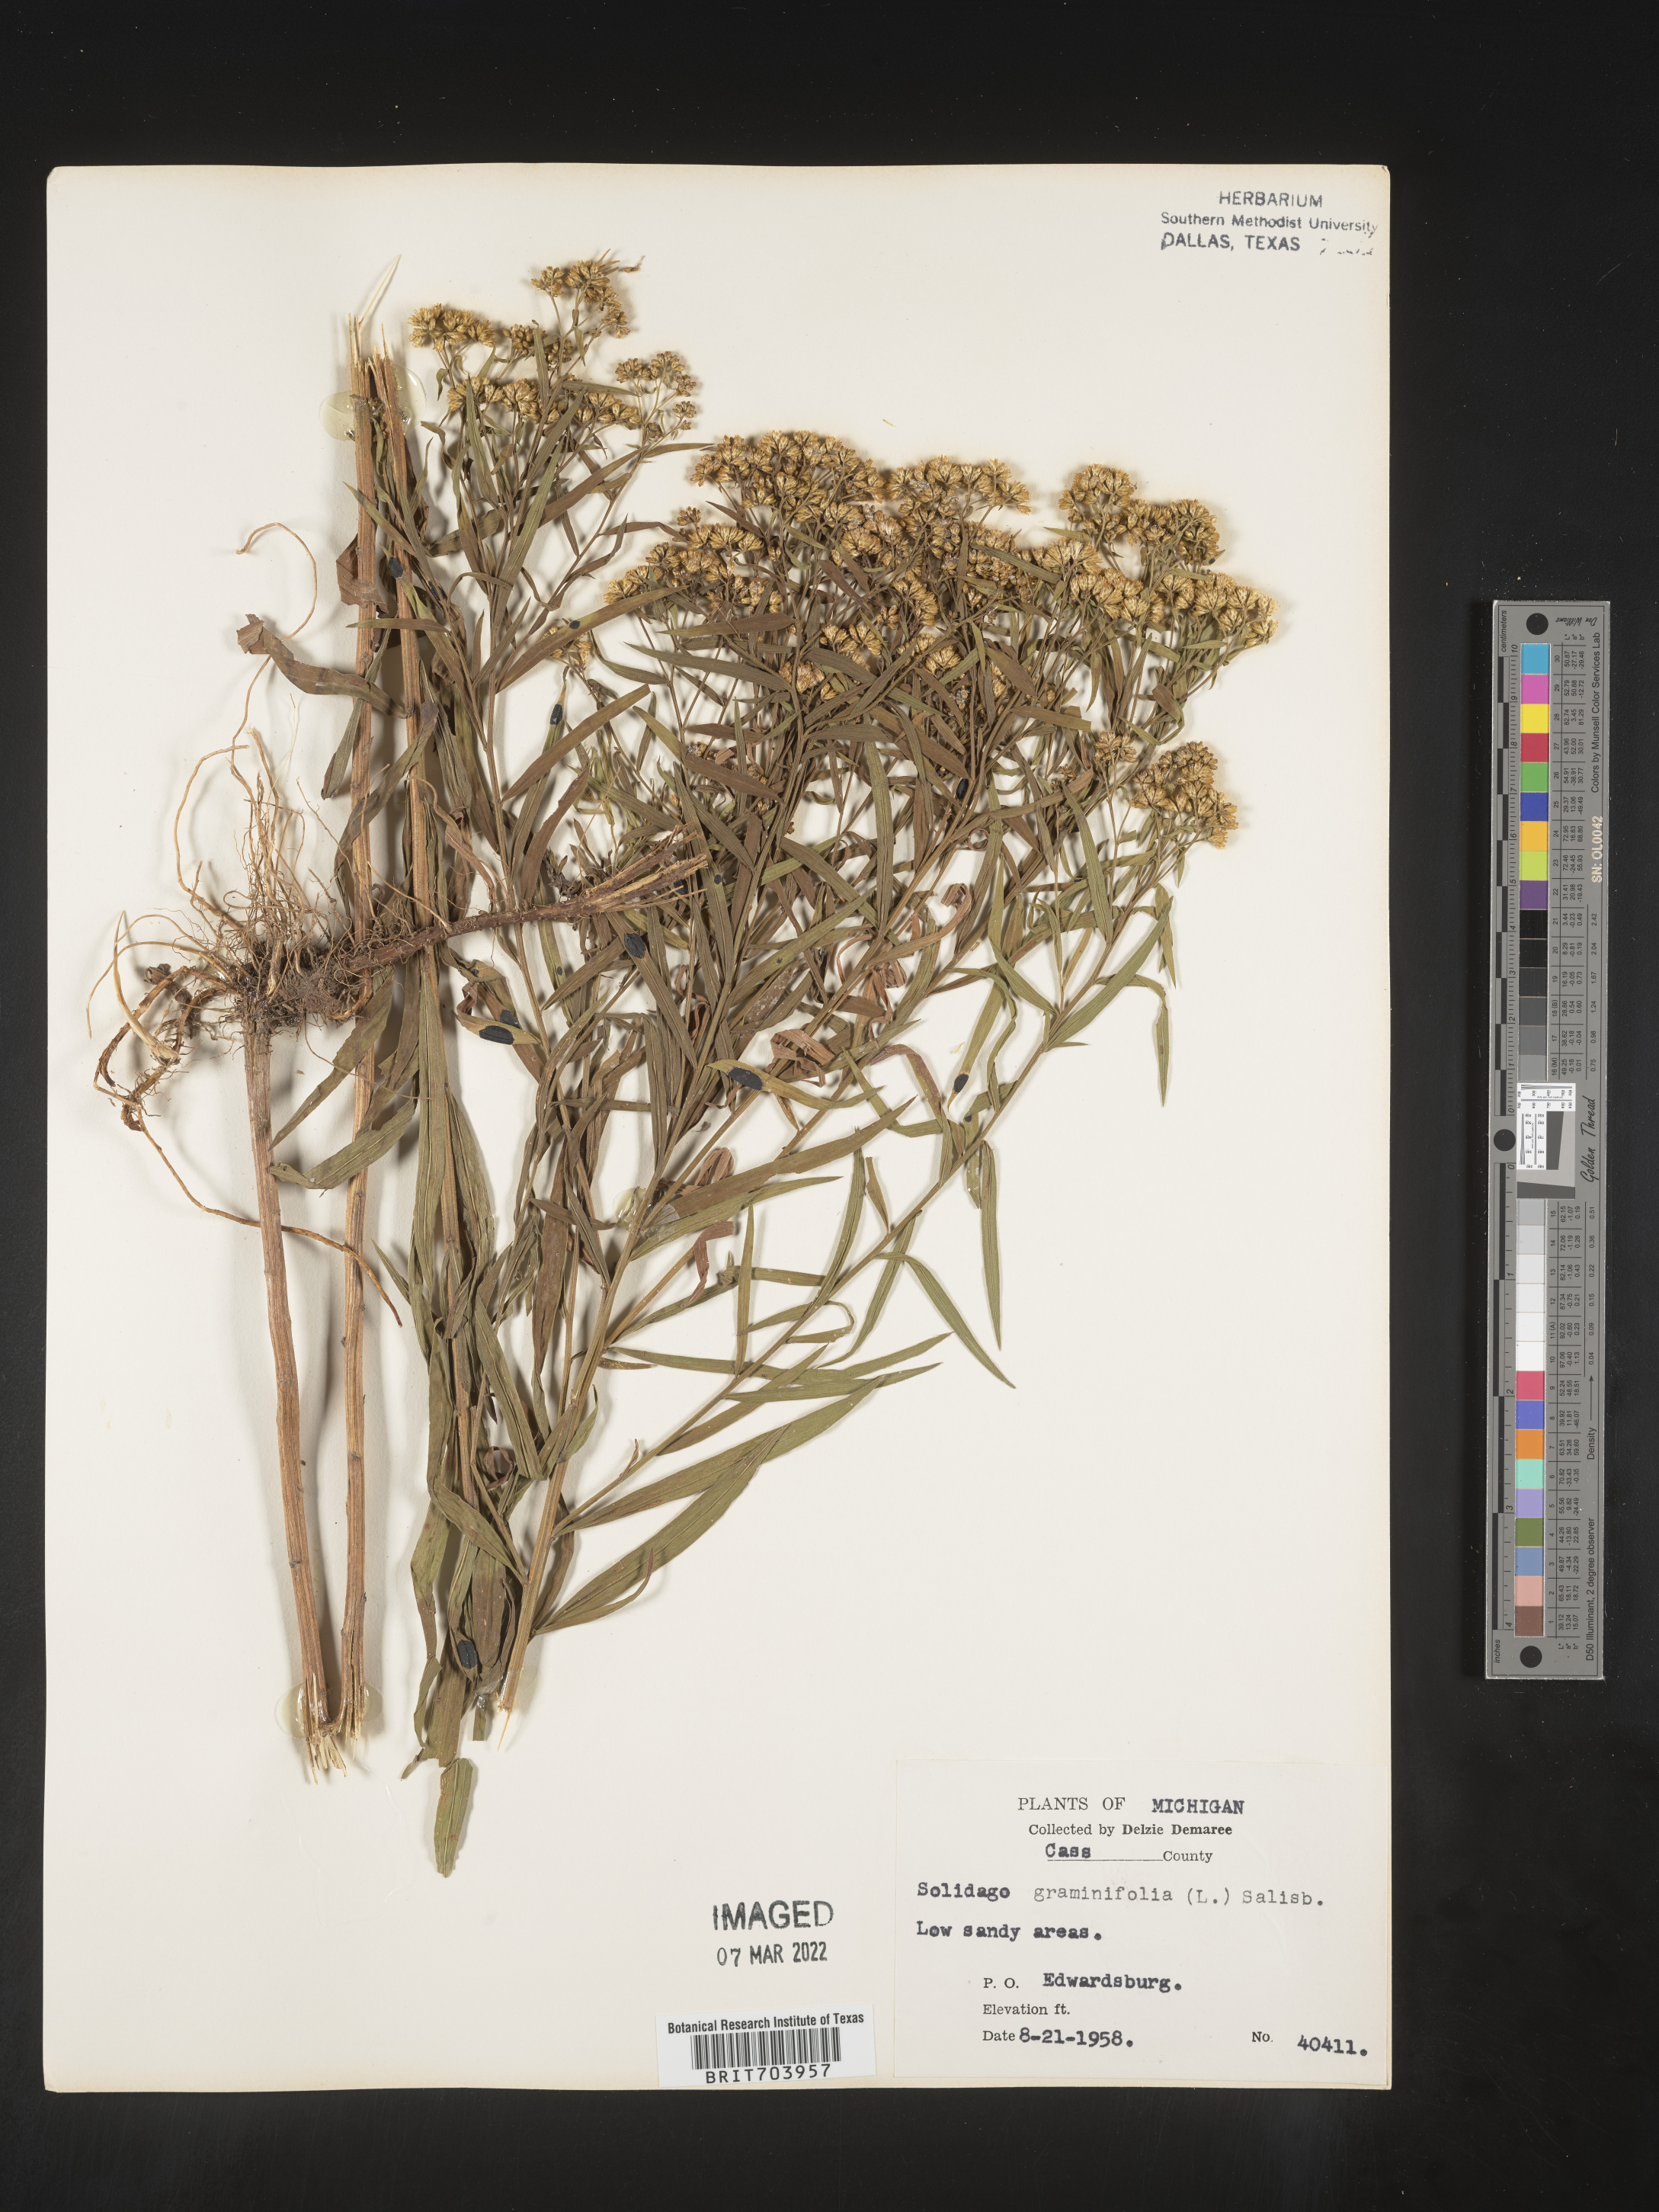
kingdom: Plantae
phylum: Tracheophyta
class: Magnoliopsida
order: Asterales
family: Asteraceae
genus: Euthamia
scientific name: Euthamia graminifolia
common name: Common goldentop
